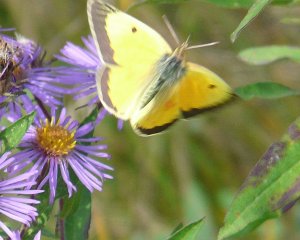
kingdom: Animalia
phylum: Arthropoda
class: Insecta
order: Lepidoptera
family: Pieridae
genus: Colias
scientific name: Colias philodice
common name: Clouded Sulphur
